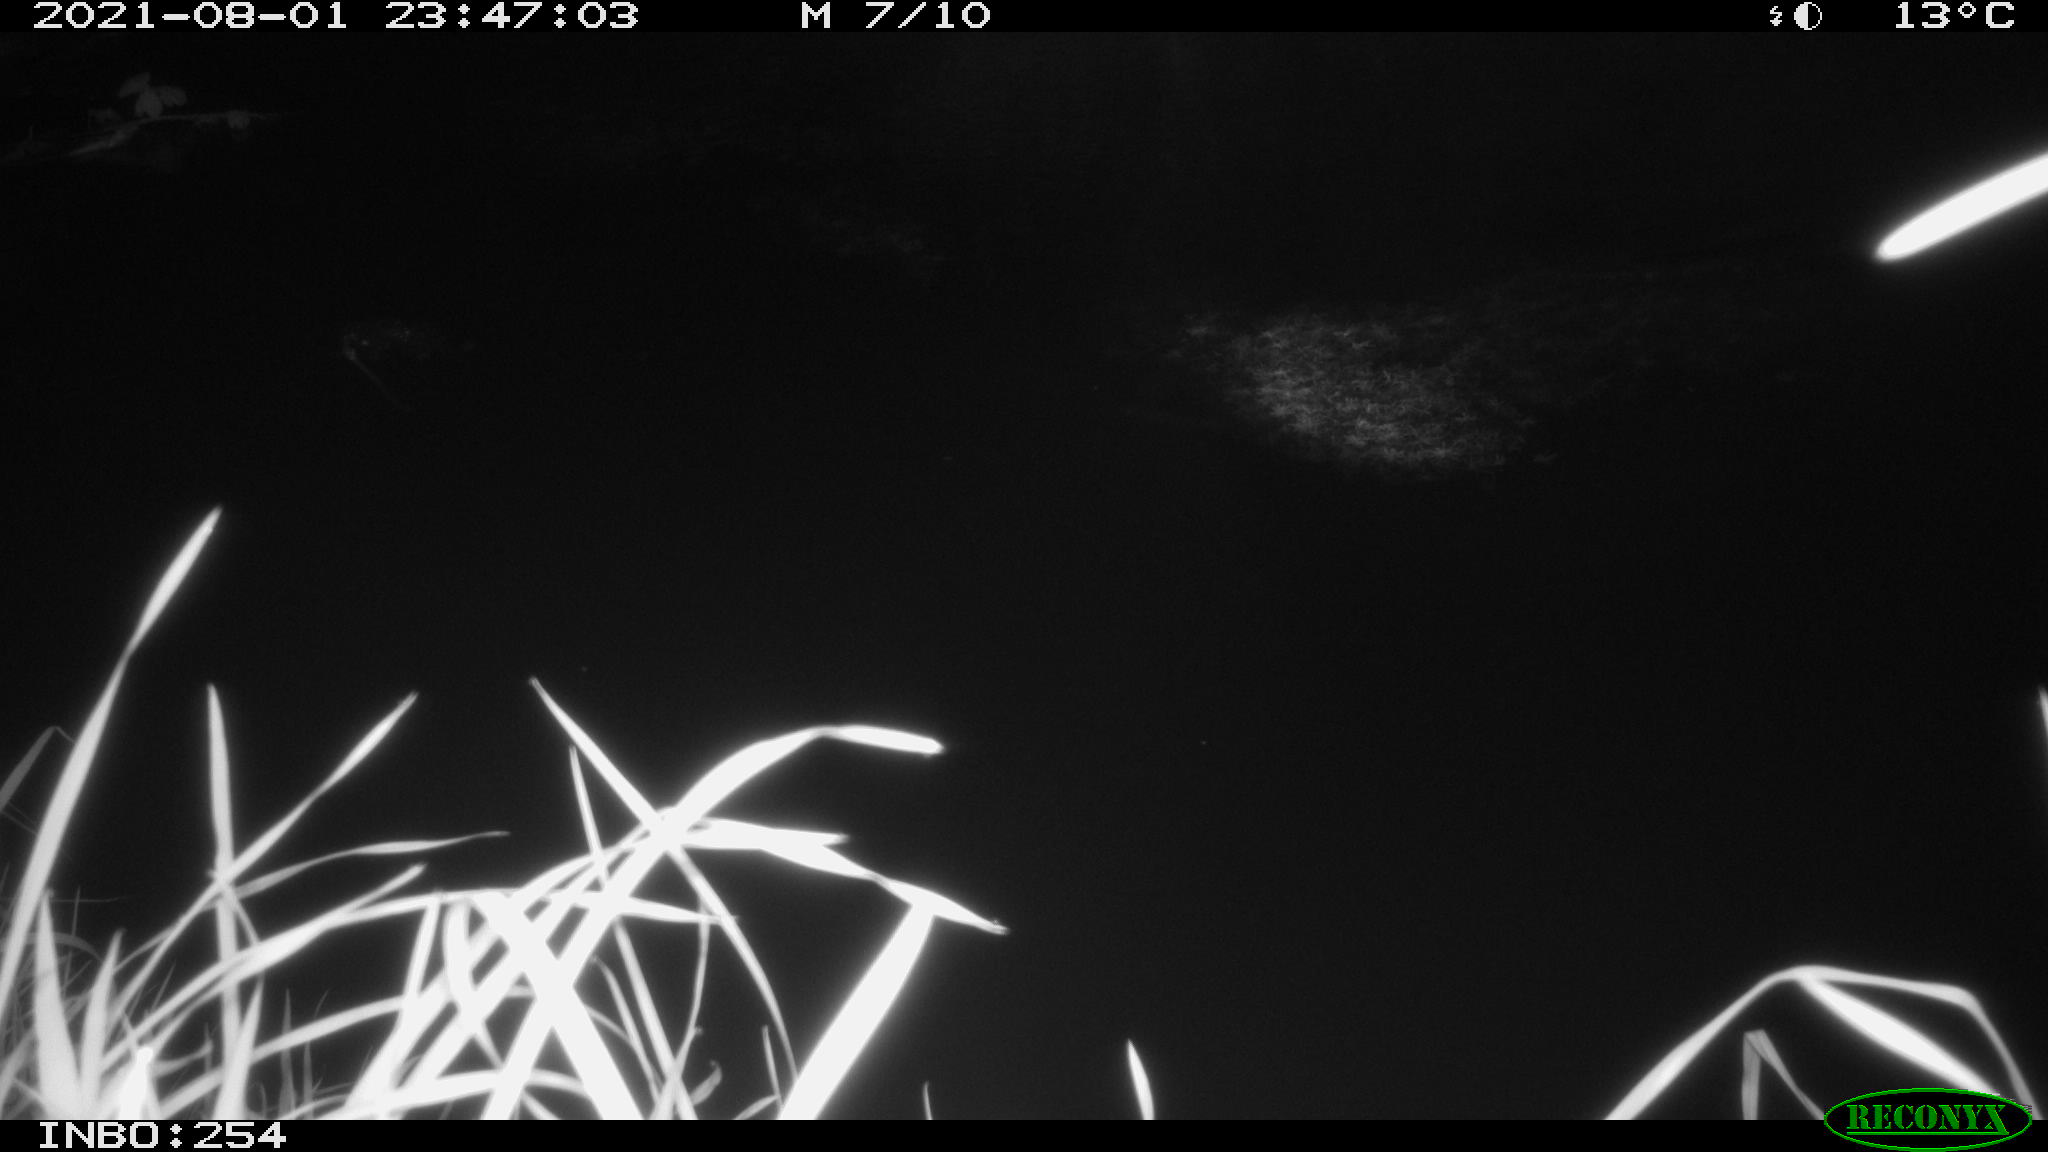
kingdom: Animalia
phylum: Chordata
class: Mammalia
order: Rodentia
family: Muridae
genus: Rattus
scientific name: Rattus norvegicus
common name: Brown rat
